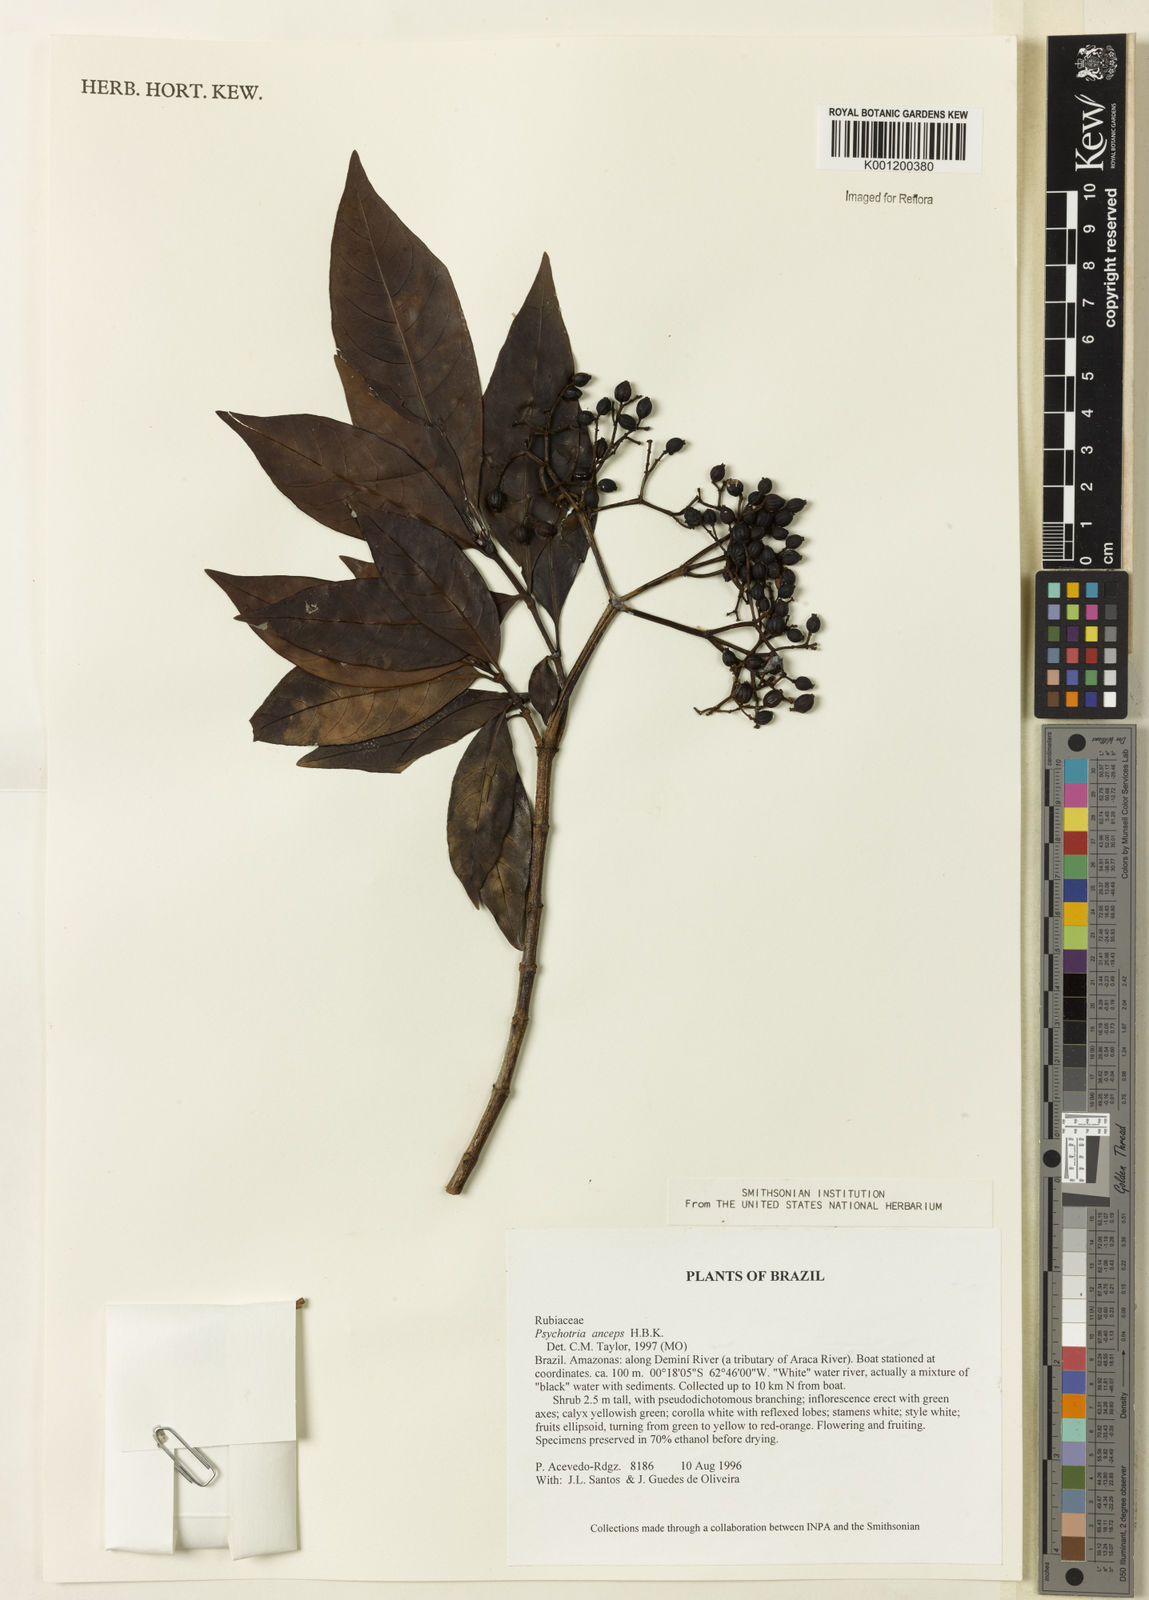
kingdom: Plantae
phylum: Tracheophyta
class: Magnoliopsida
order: Gentianales
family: Rubiaceae
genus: Psychotria
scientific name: Psychotria anceps
